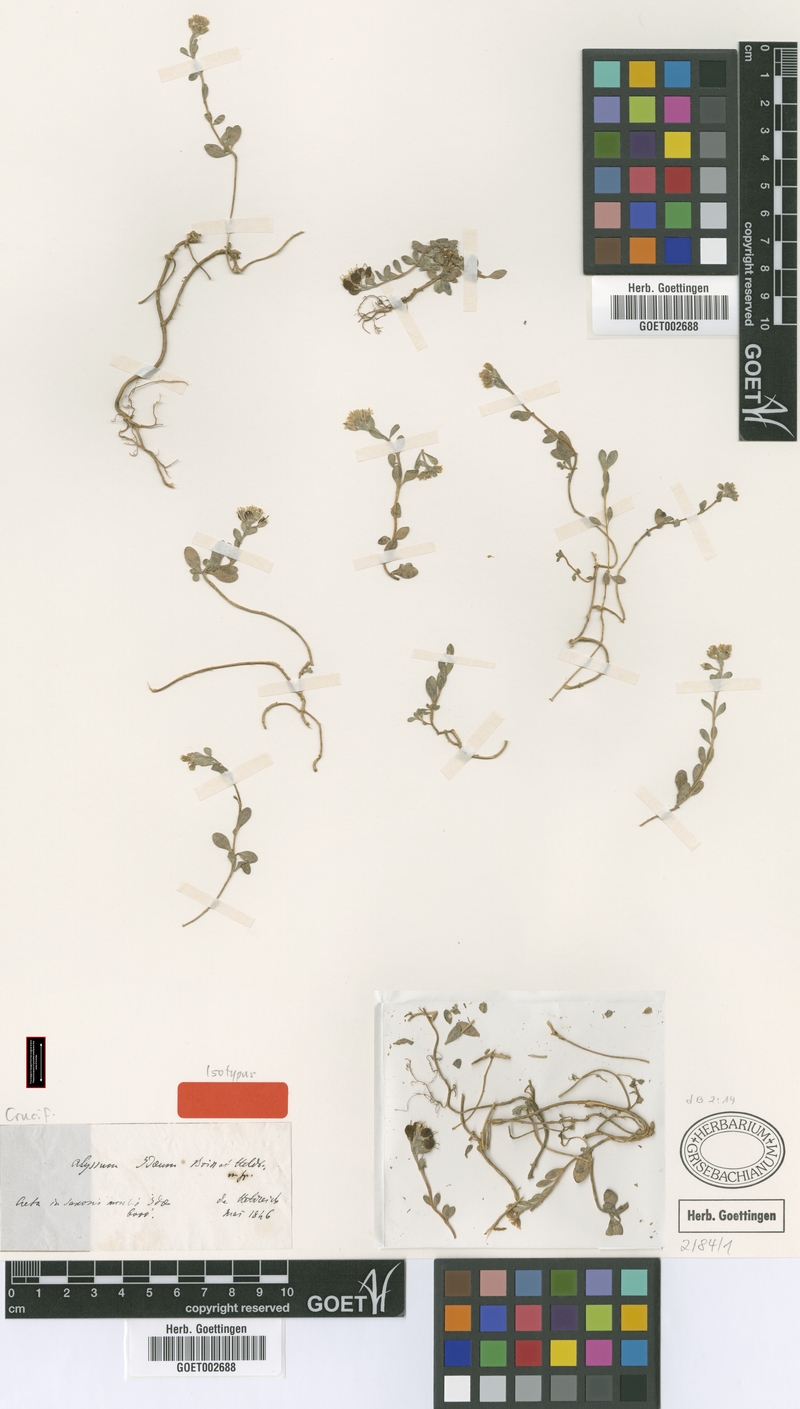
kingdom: Plantae
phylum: Tracheophyta
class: Magnoliopsida
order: Brassicales
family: Brassicaceae
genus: Alyssum
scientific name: Alyssum idaeum
